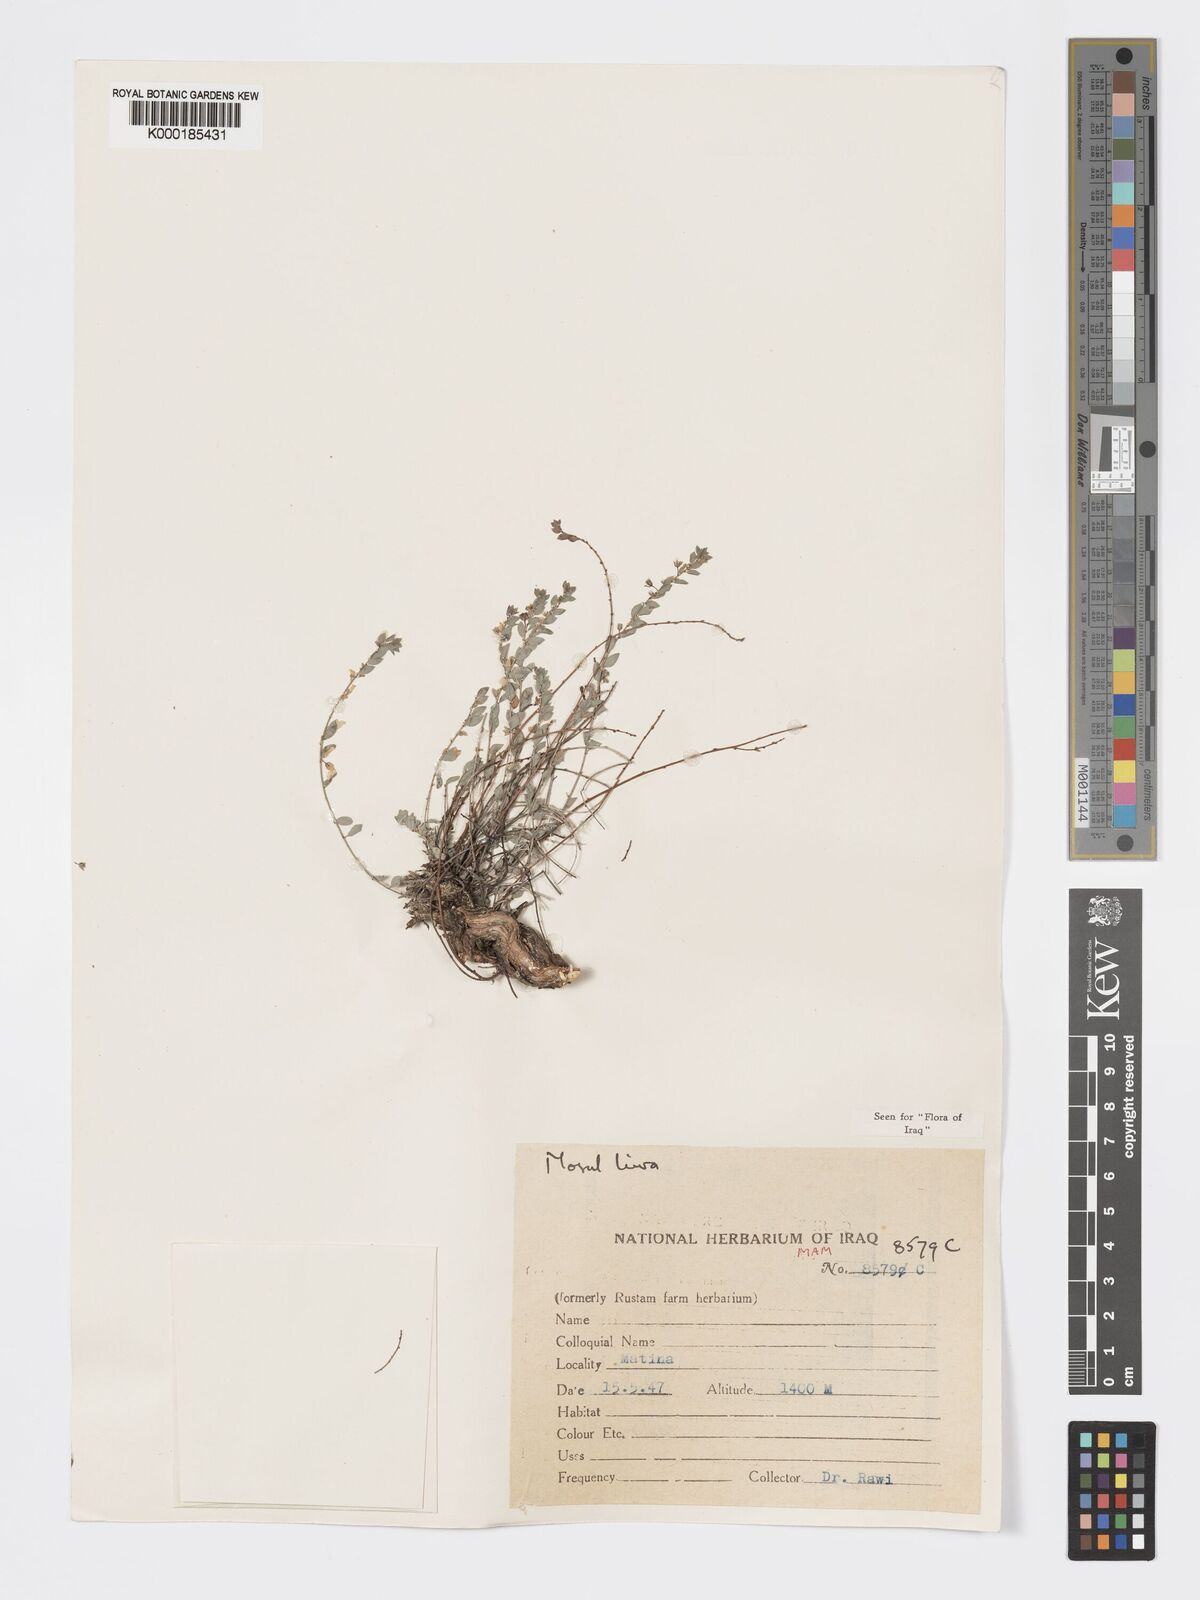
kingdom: Plantae
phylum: Tracheophyta
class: Magnoliopsida
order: Malpighiales
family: Phyllanthaceae
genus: Andrachne
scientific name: Andrachne telephioides
